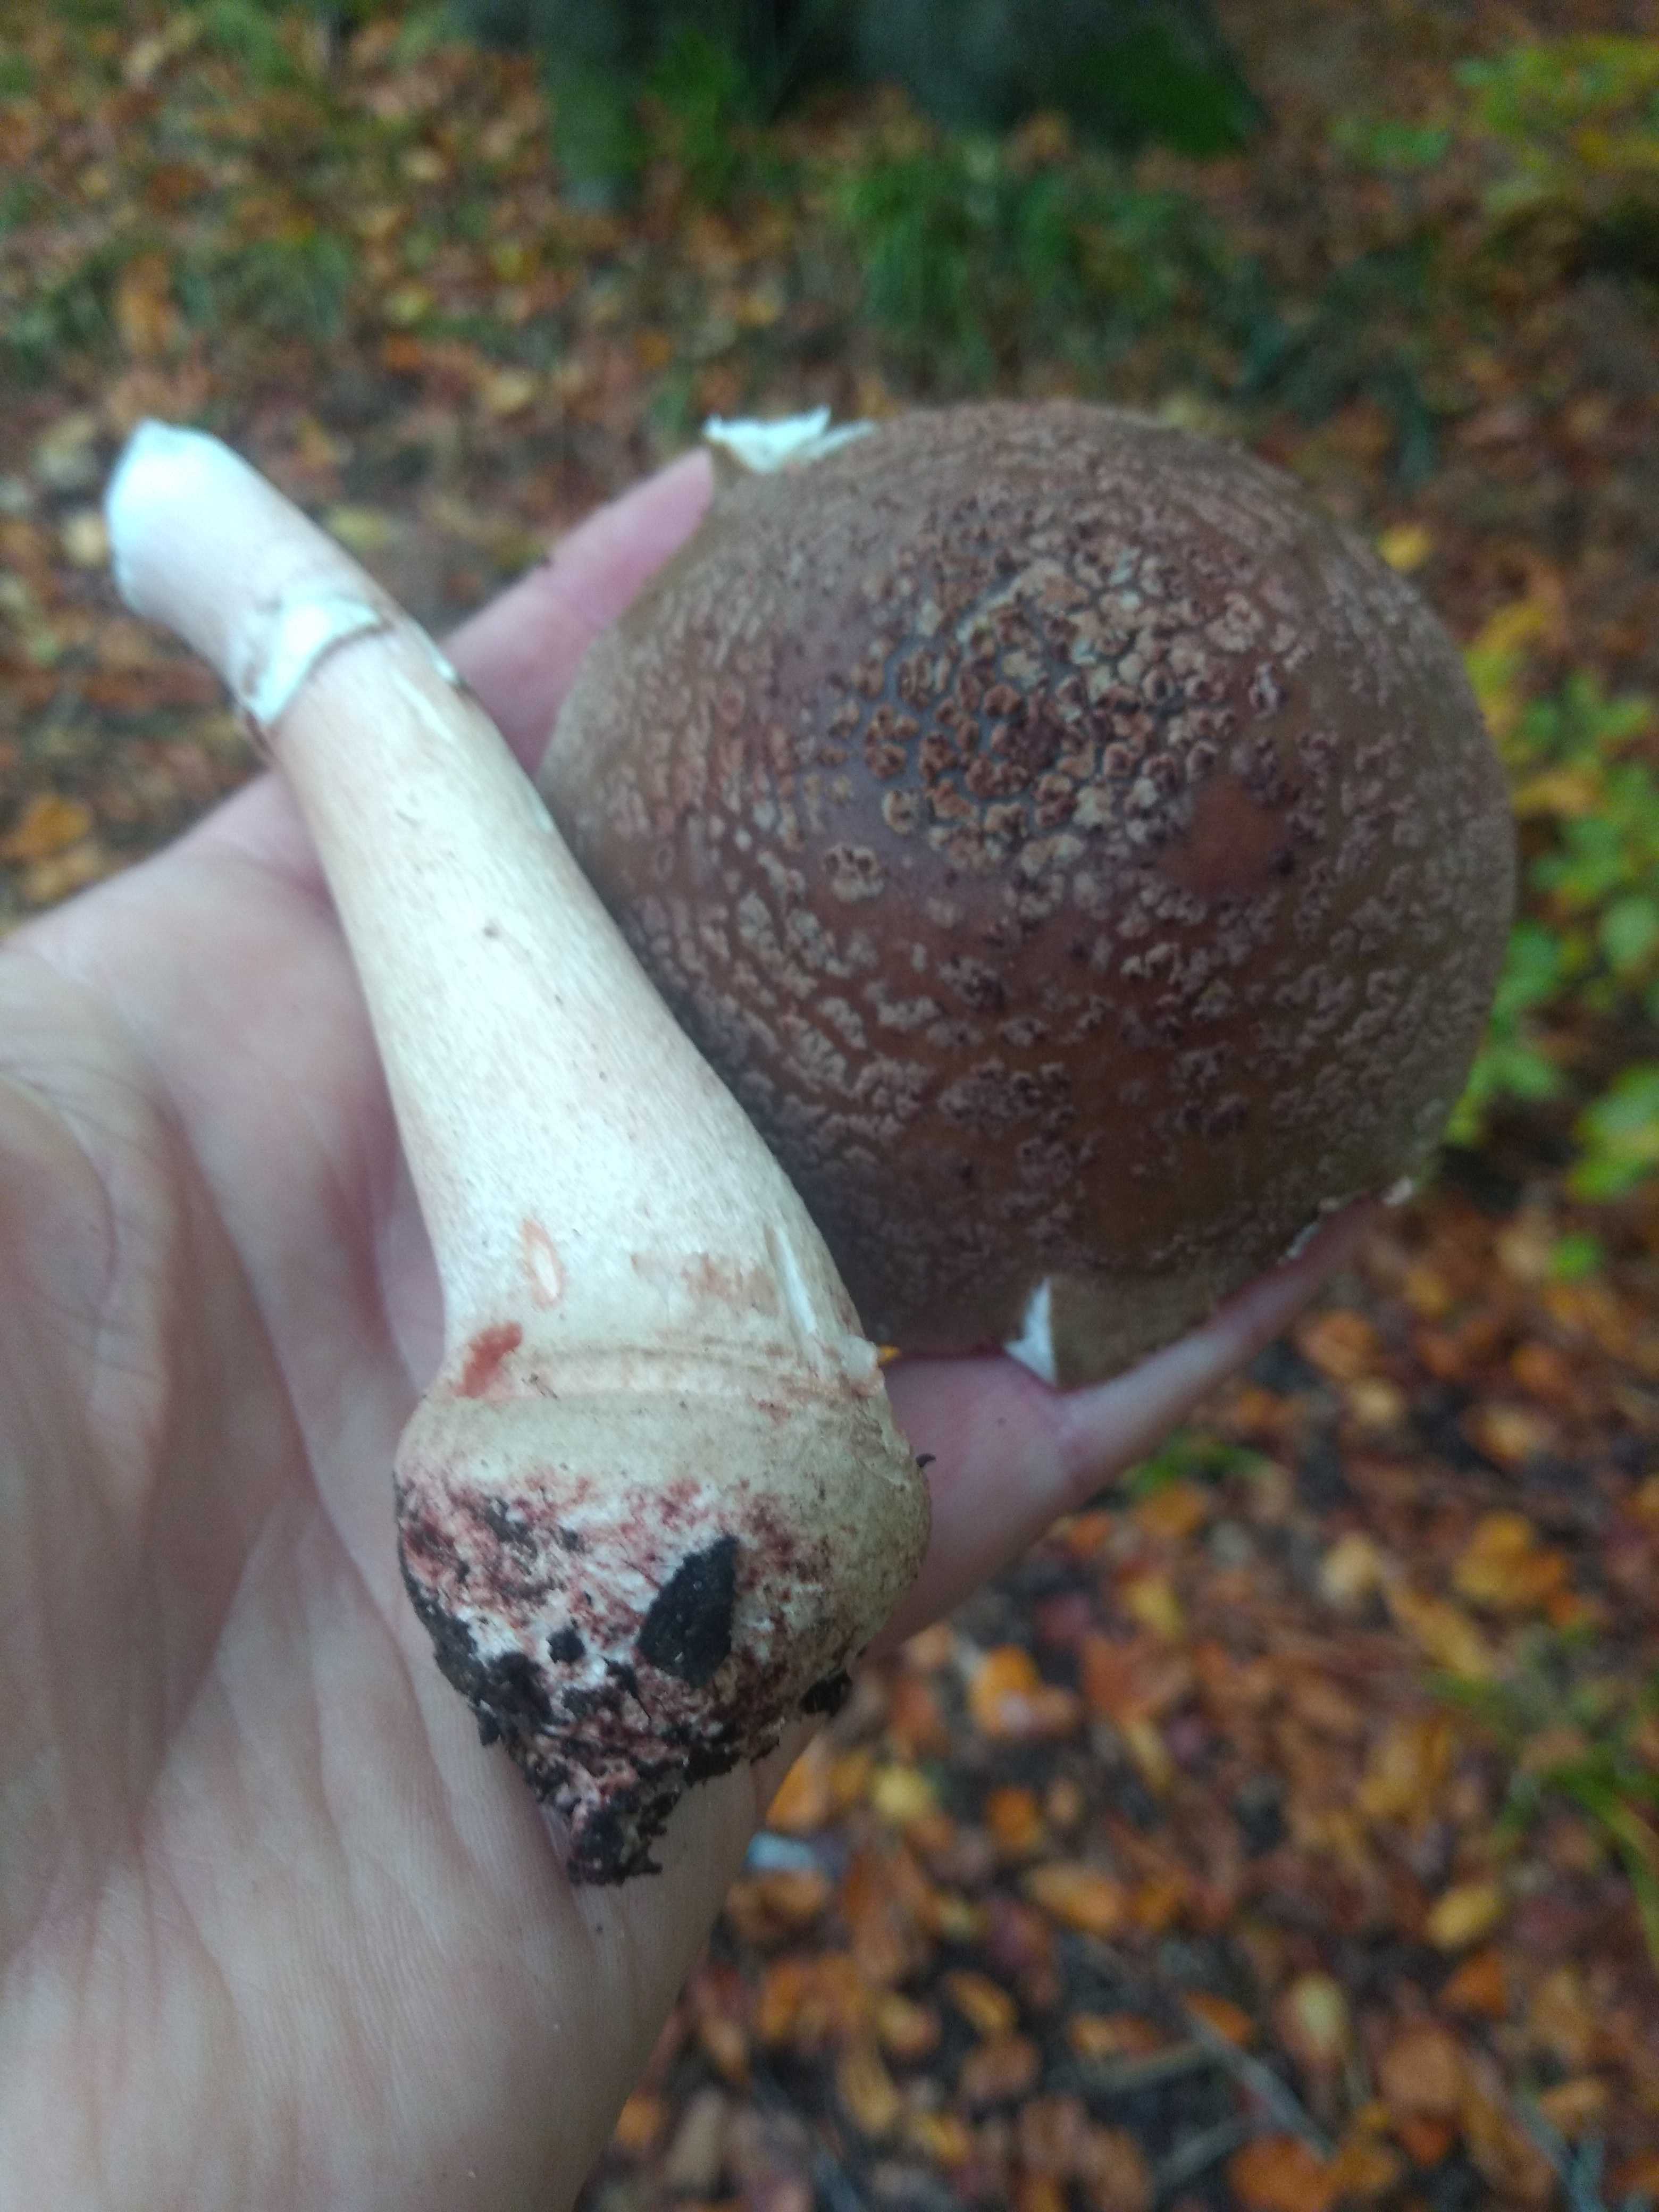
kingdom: Fungi
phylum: Basidiomycota
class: Agaricomycetes
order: Agaricales
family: Amanitaceae
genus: Amanita
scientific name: Amanita rubescens
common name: rødmende fluesvamp
